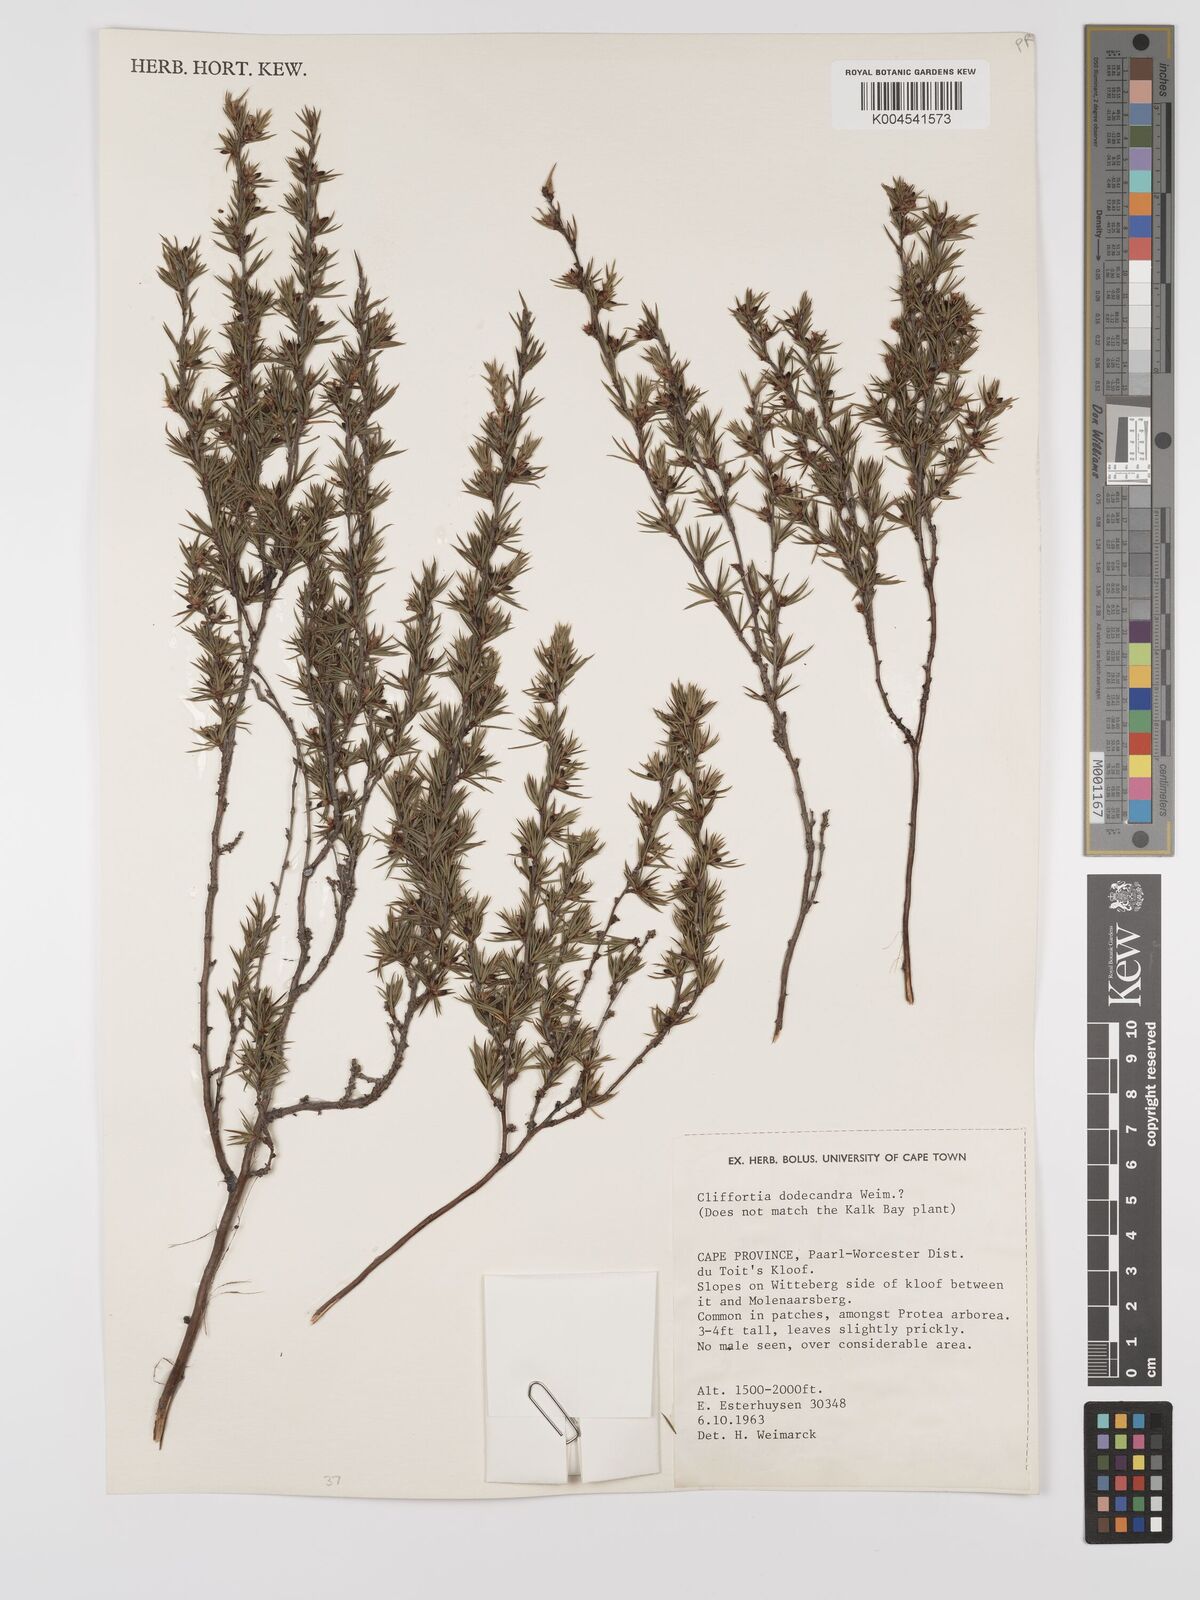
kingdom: Plantae
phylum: Tracheophyta
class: Magnoliopsida
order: Rosales
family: Rosaceae
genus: Cliffortia
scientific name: Cliffortia dodecandra
